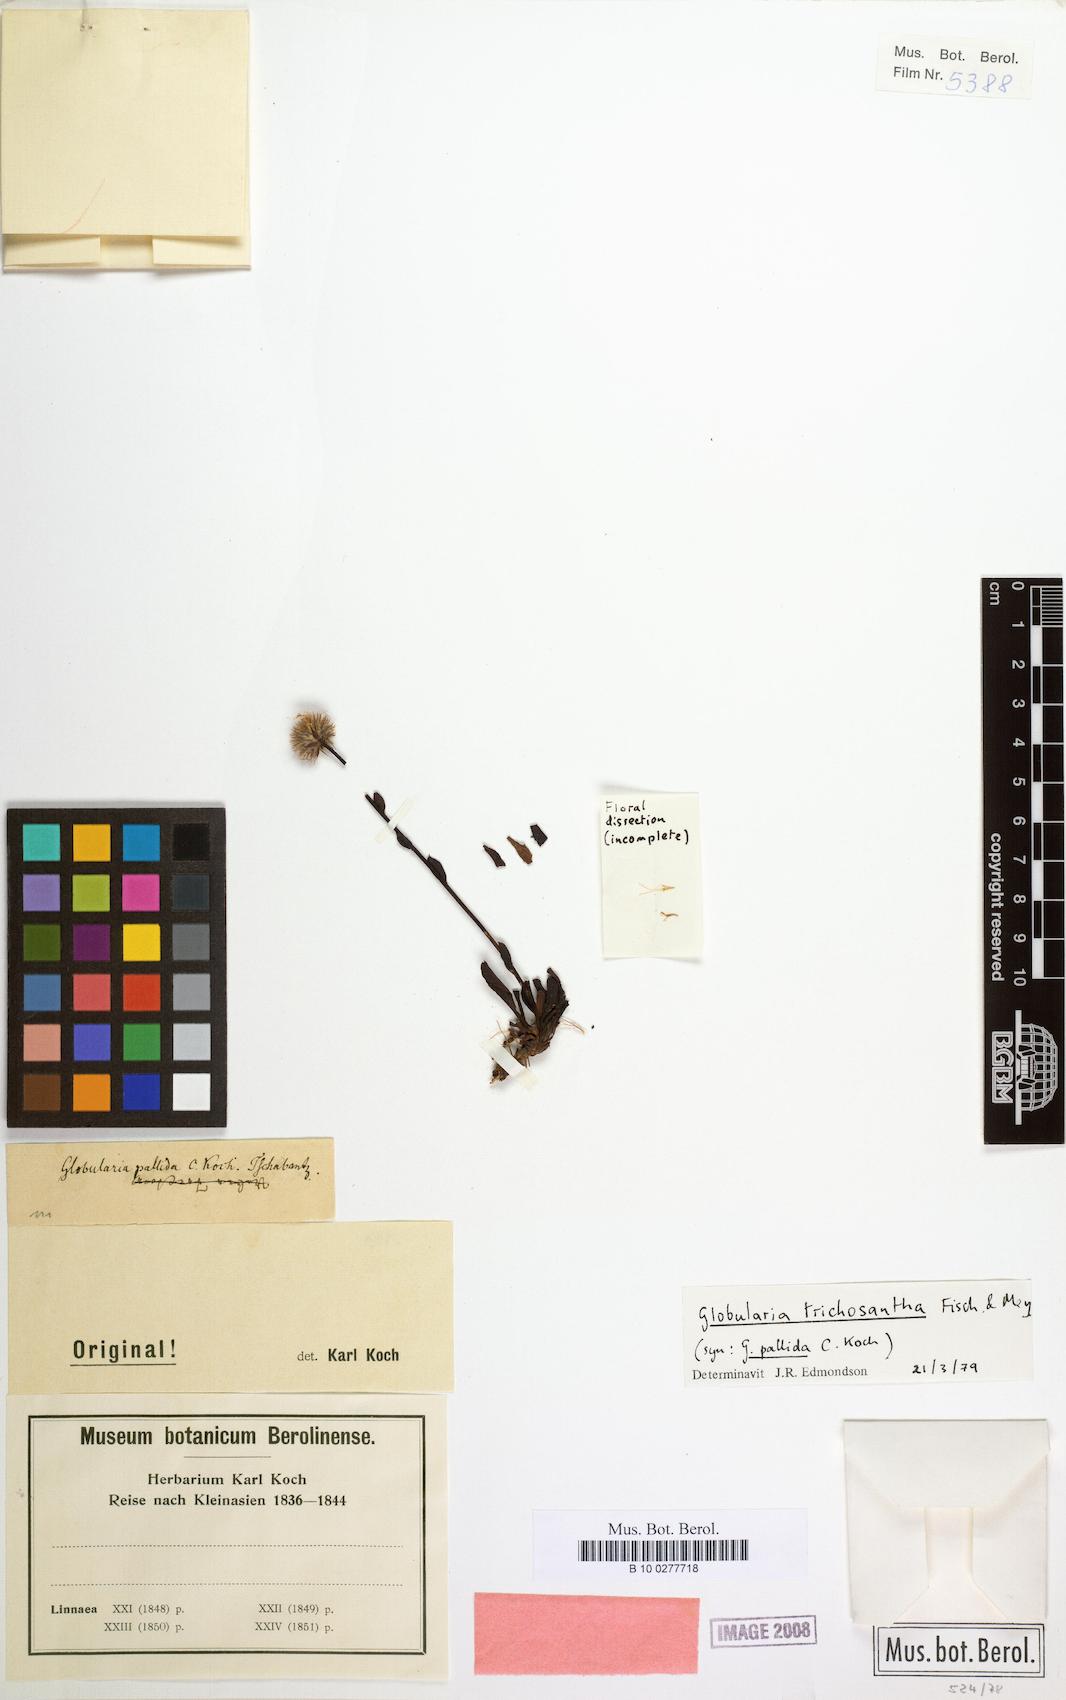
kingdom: Plantae
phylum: Tracheophyta
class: Magnoliopsida
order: Lamiales
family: Plantaginaceae
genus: Globularia
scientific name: Globularia trichosantha
